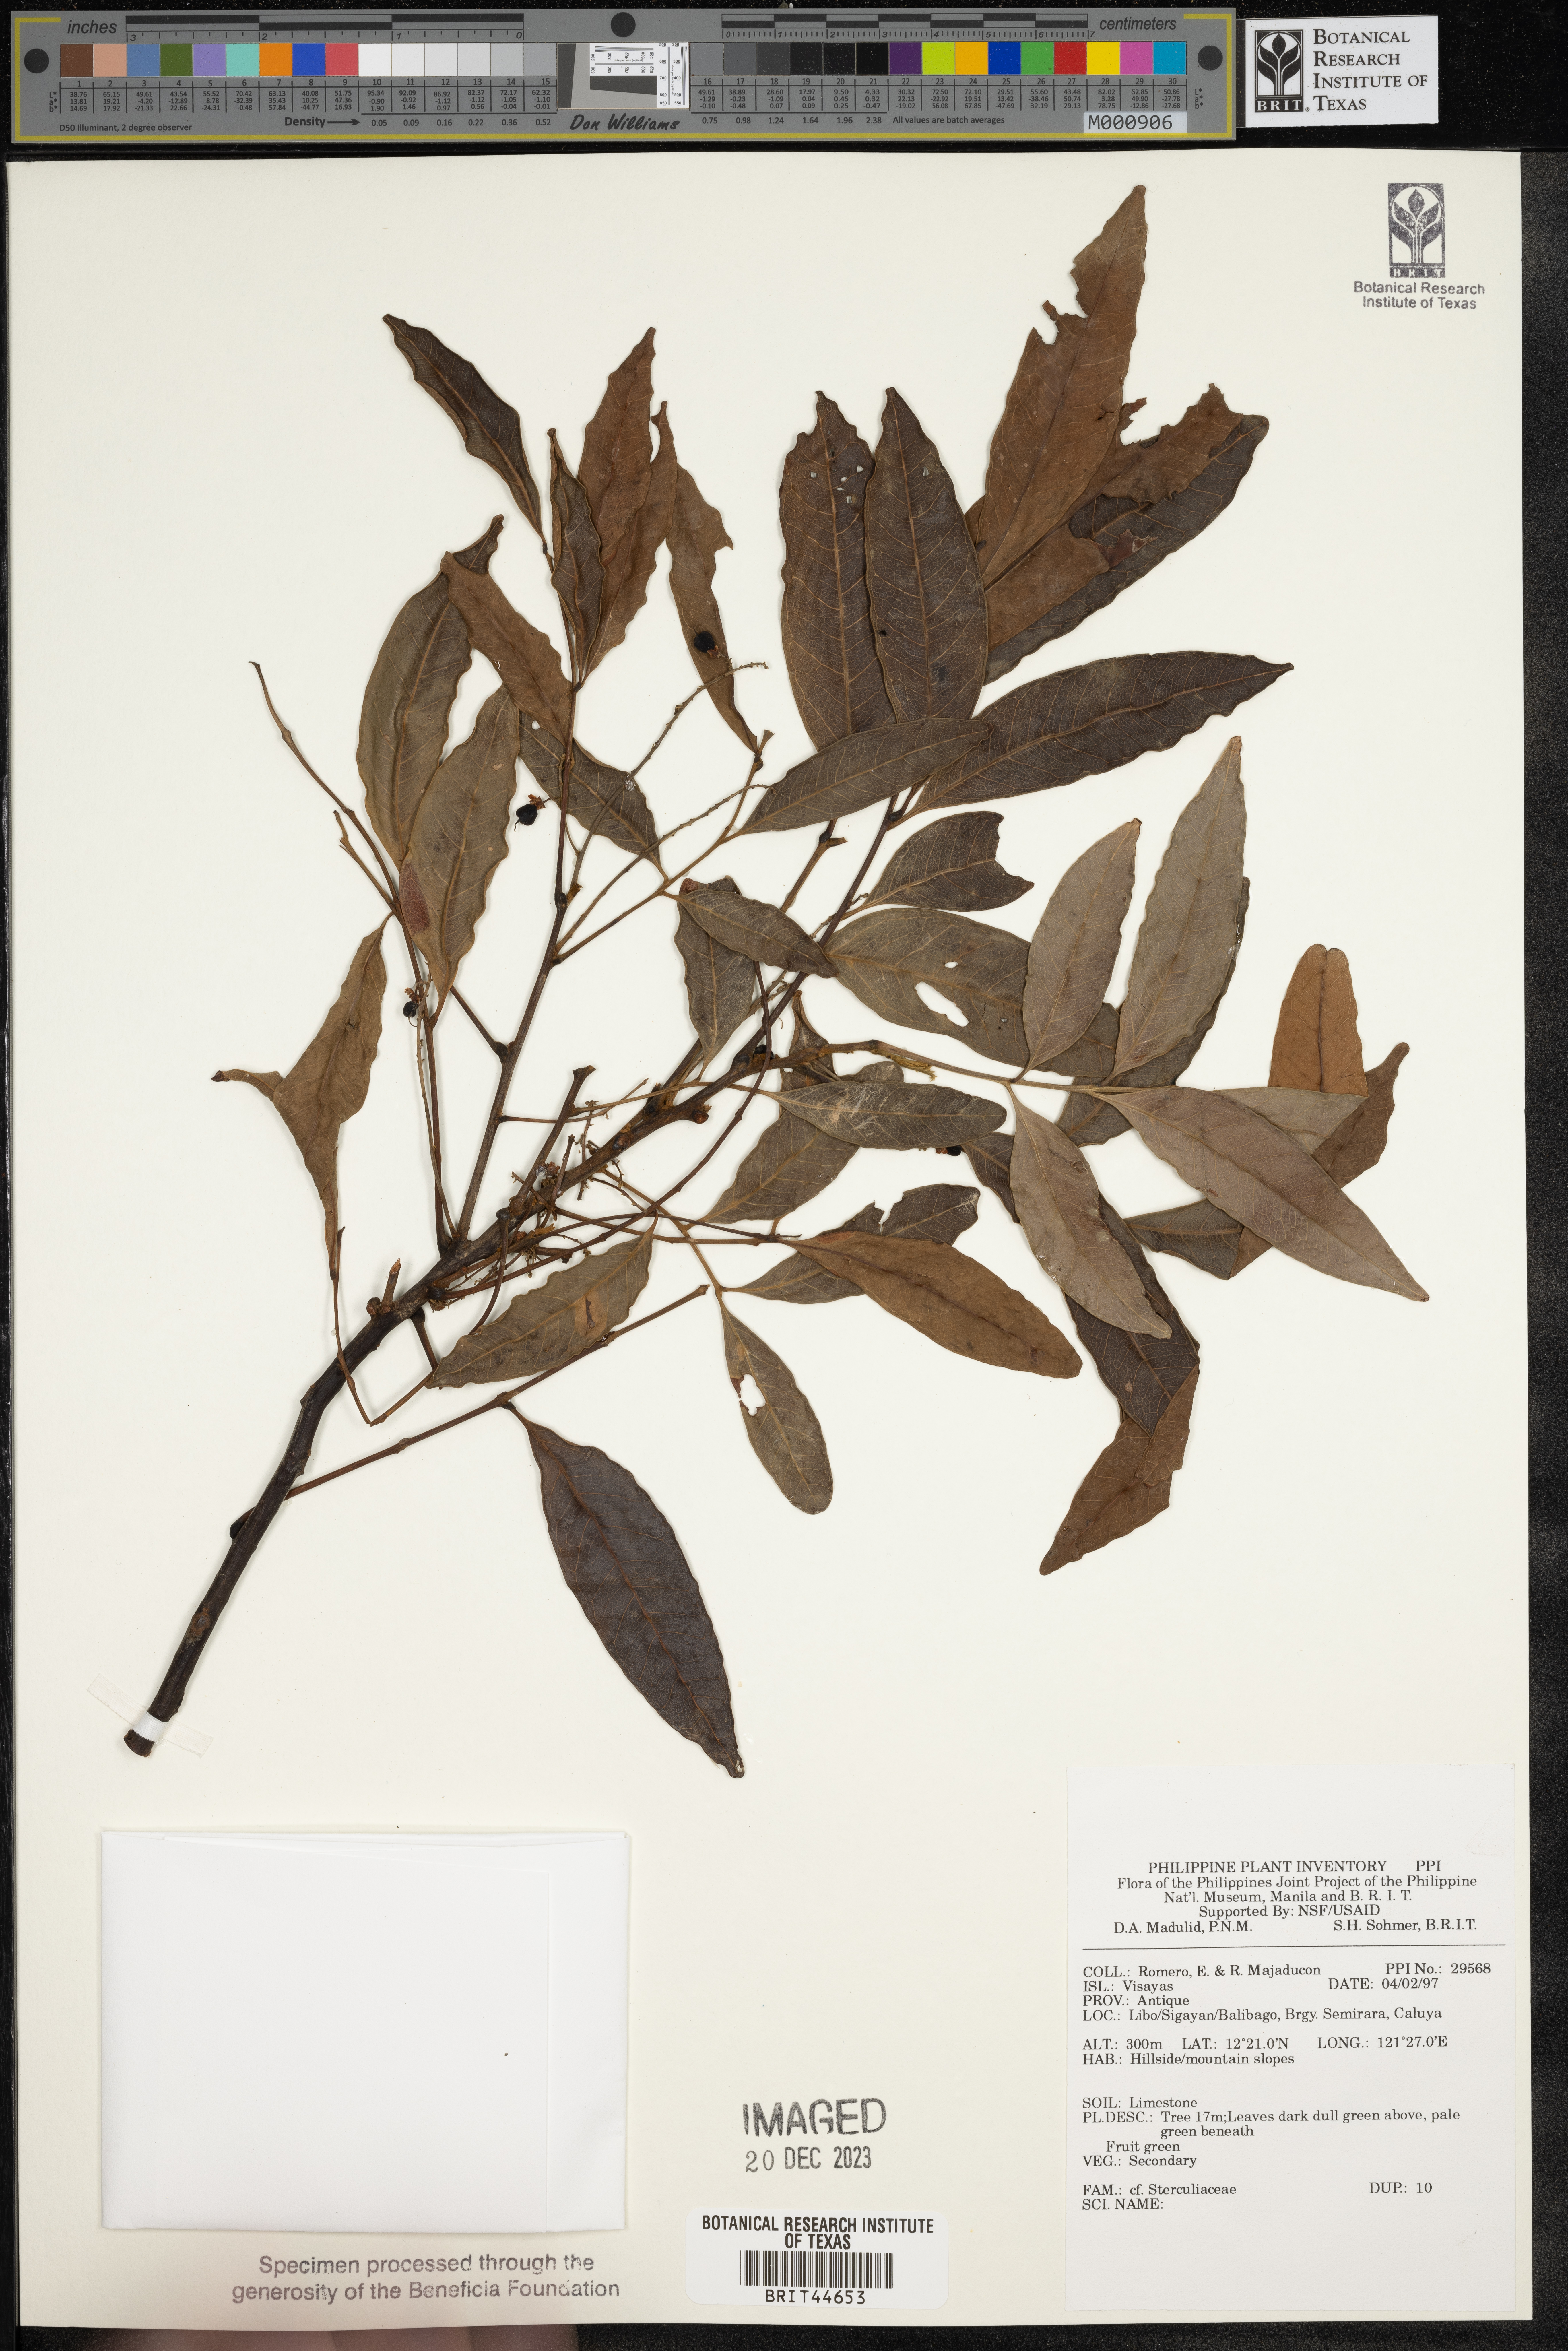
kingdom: Plantae
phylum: Tracheophyta
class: Magnoliopsida
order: Malvales
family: Sterculiaceae
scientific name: Sterculiaceae
